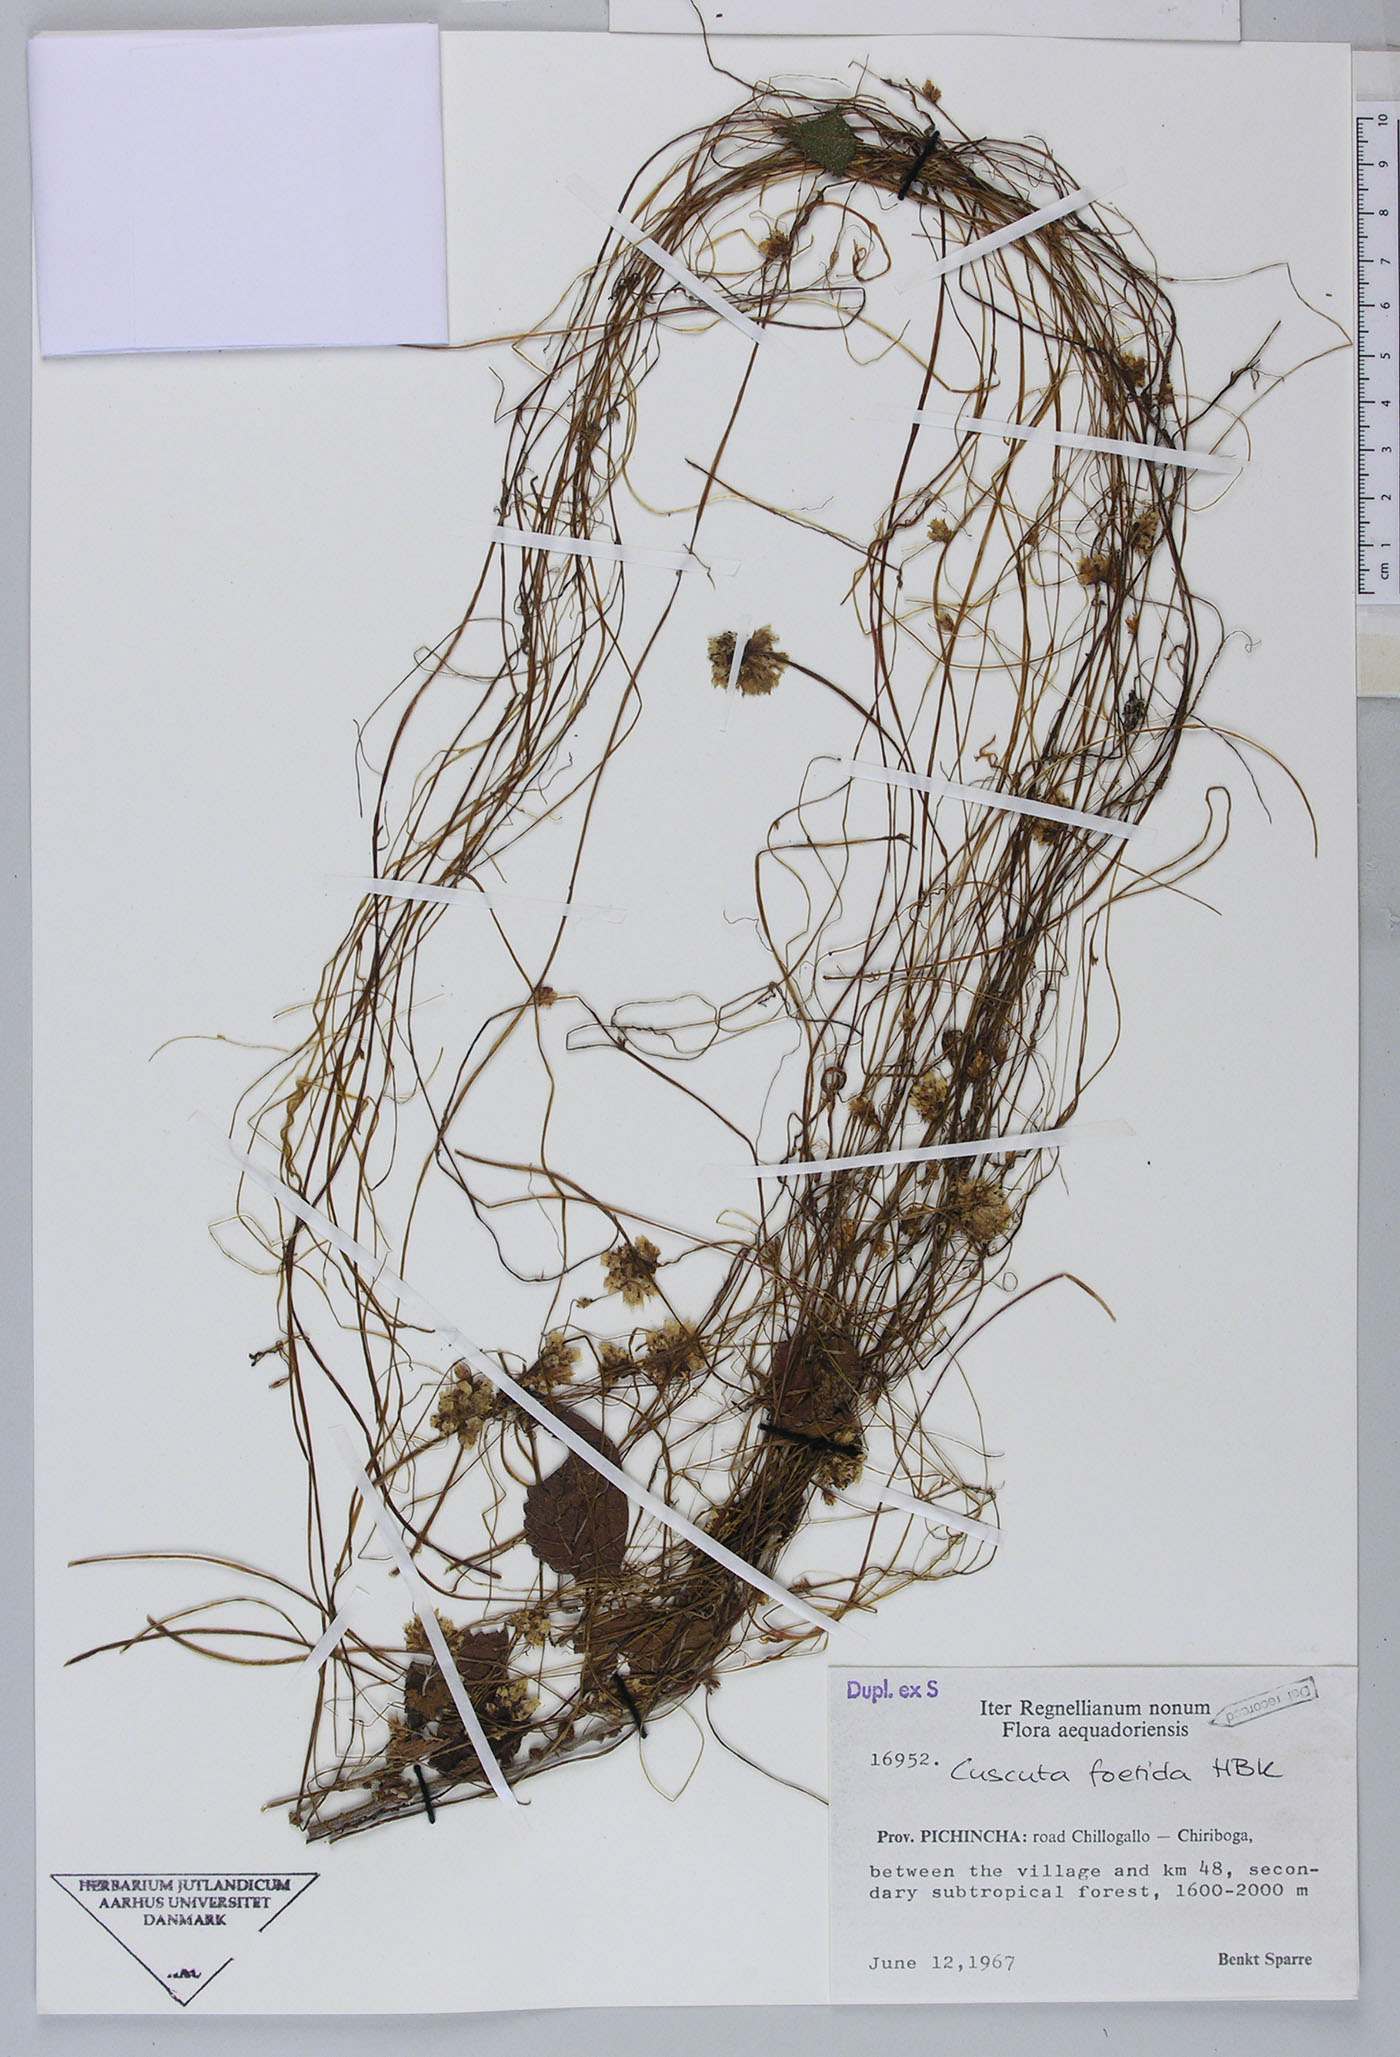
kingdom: Plantae
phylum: Tracheophyta
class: Magnoliopsida
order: Solanales
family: Convolvulaceae
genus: Cuscuta
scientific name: Cuscuta foetida
